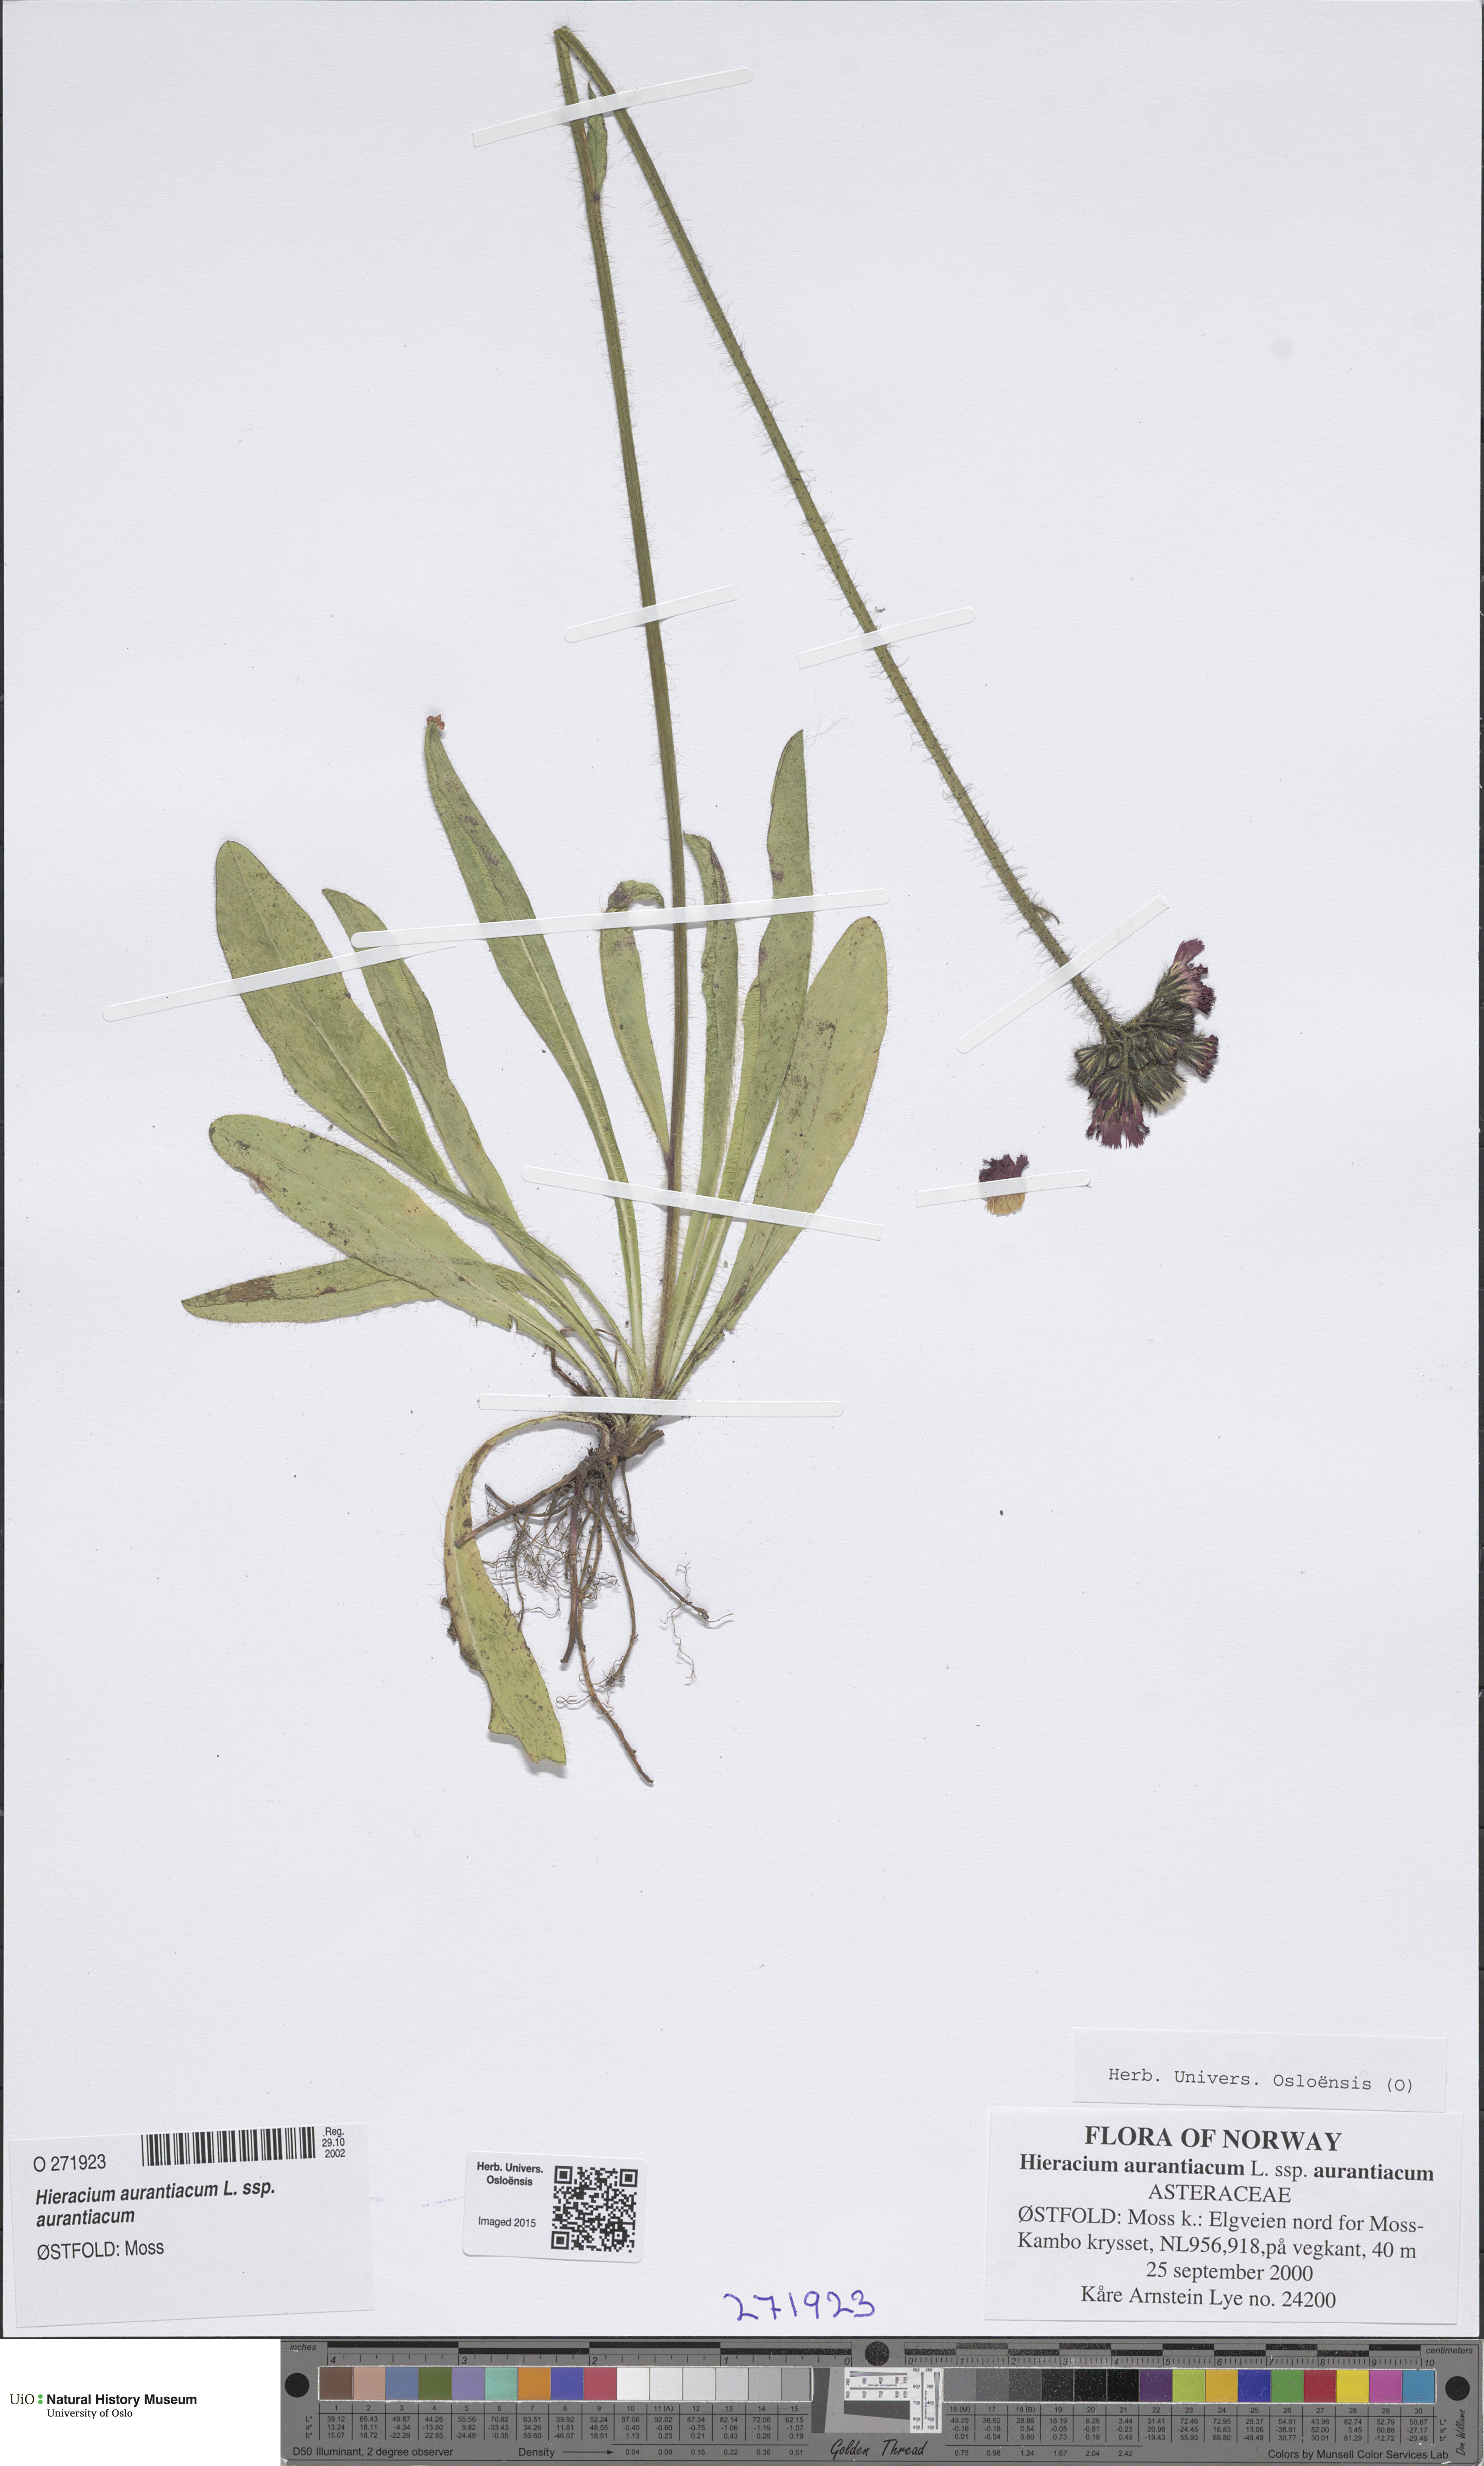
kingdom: Plantae
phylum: Tracheophyta
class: Magnoliopsida
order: Asterales
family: Asteraceae
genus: Pilosella
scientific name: Pilosella aurantiaca
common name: Fox-and-cubs
